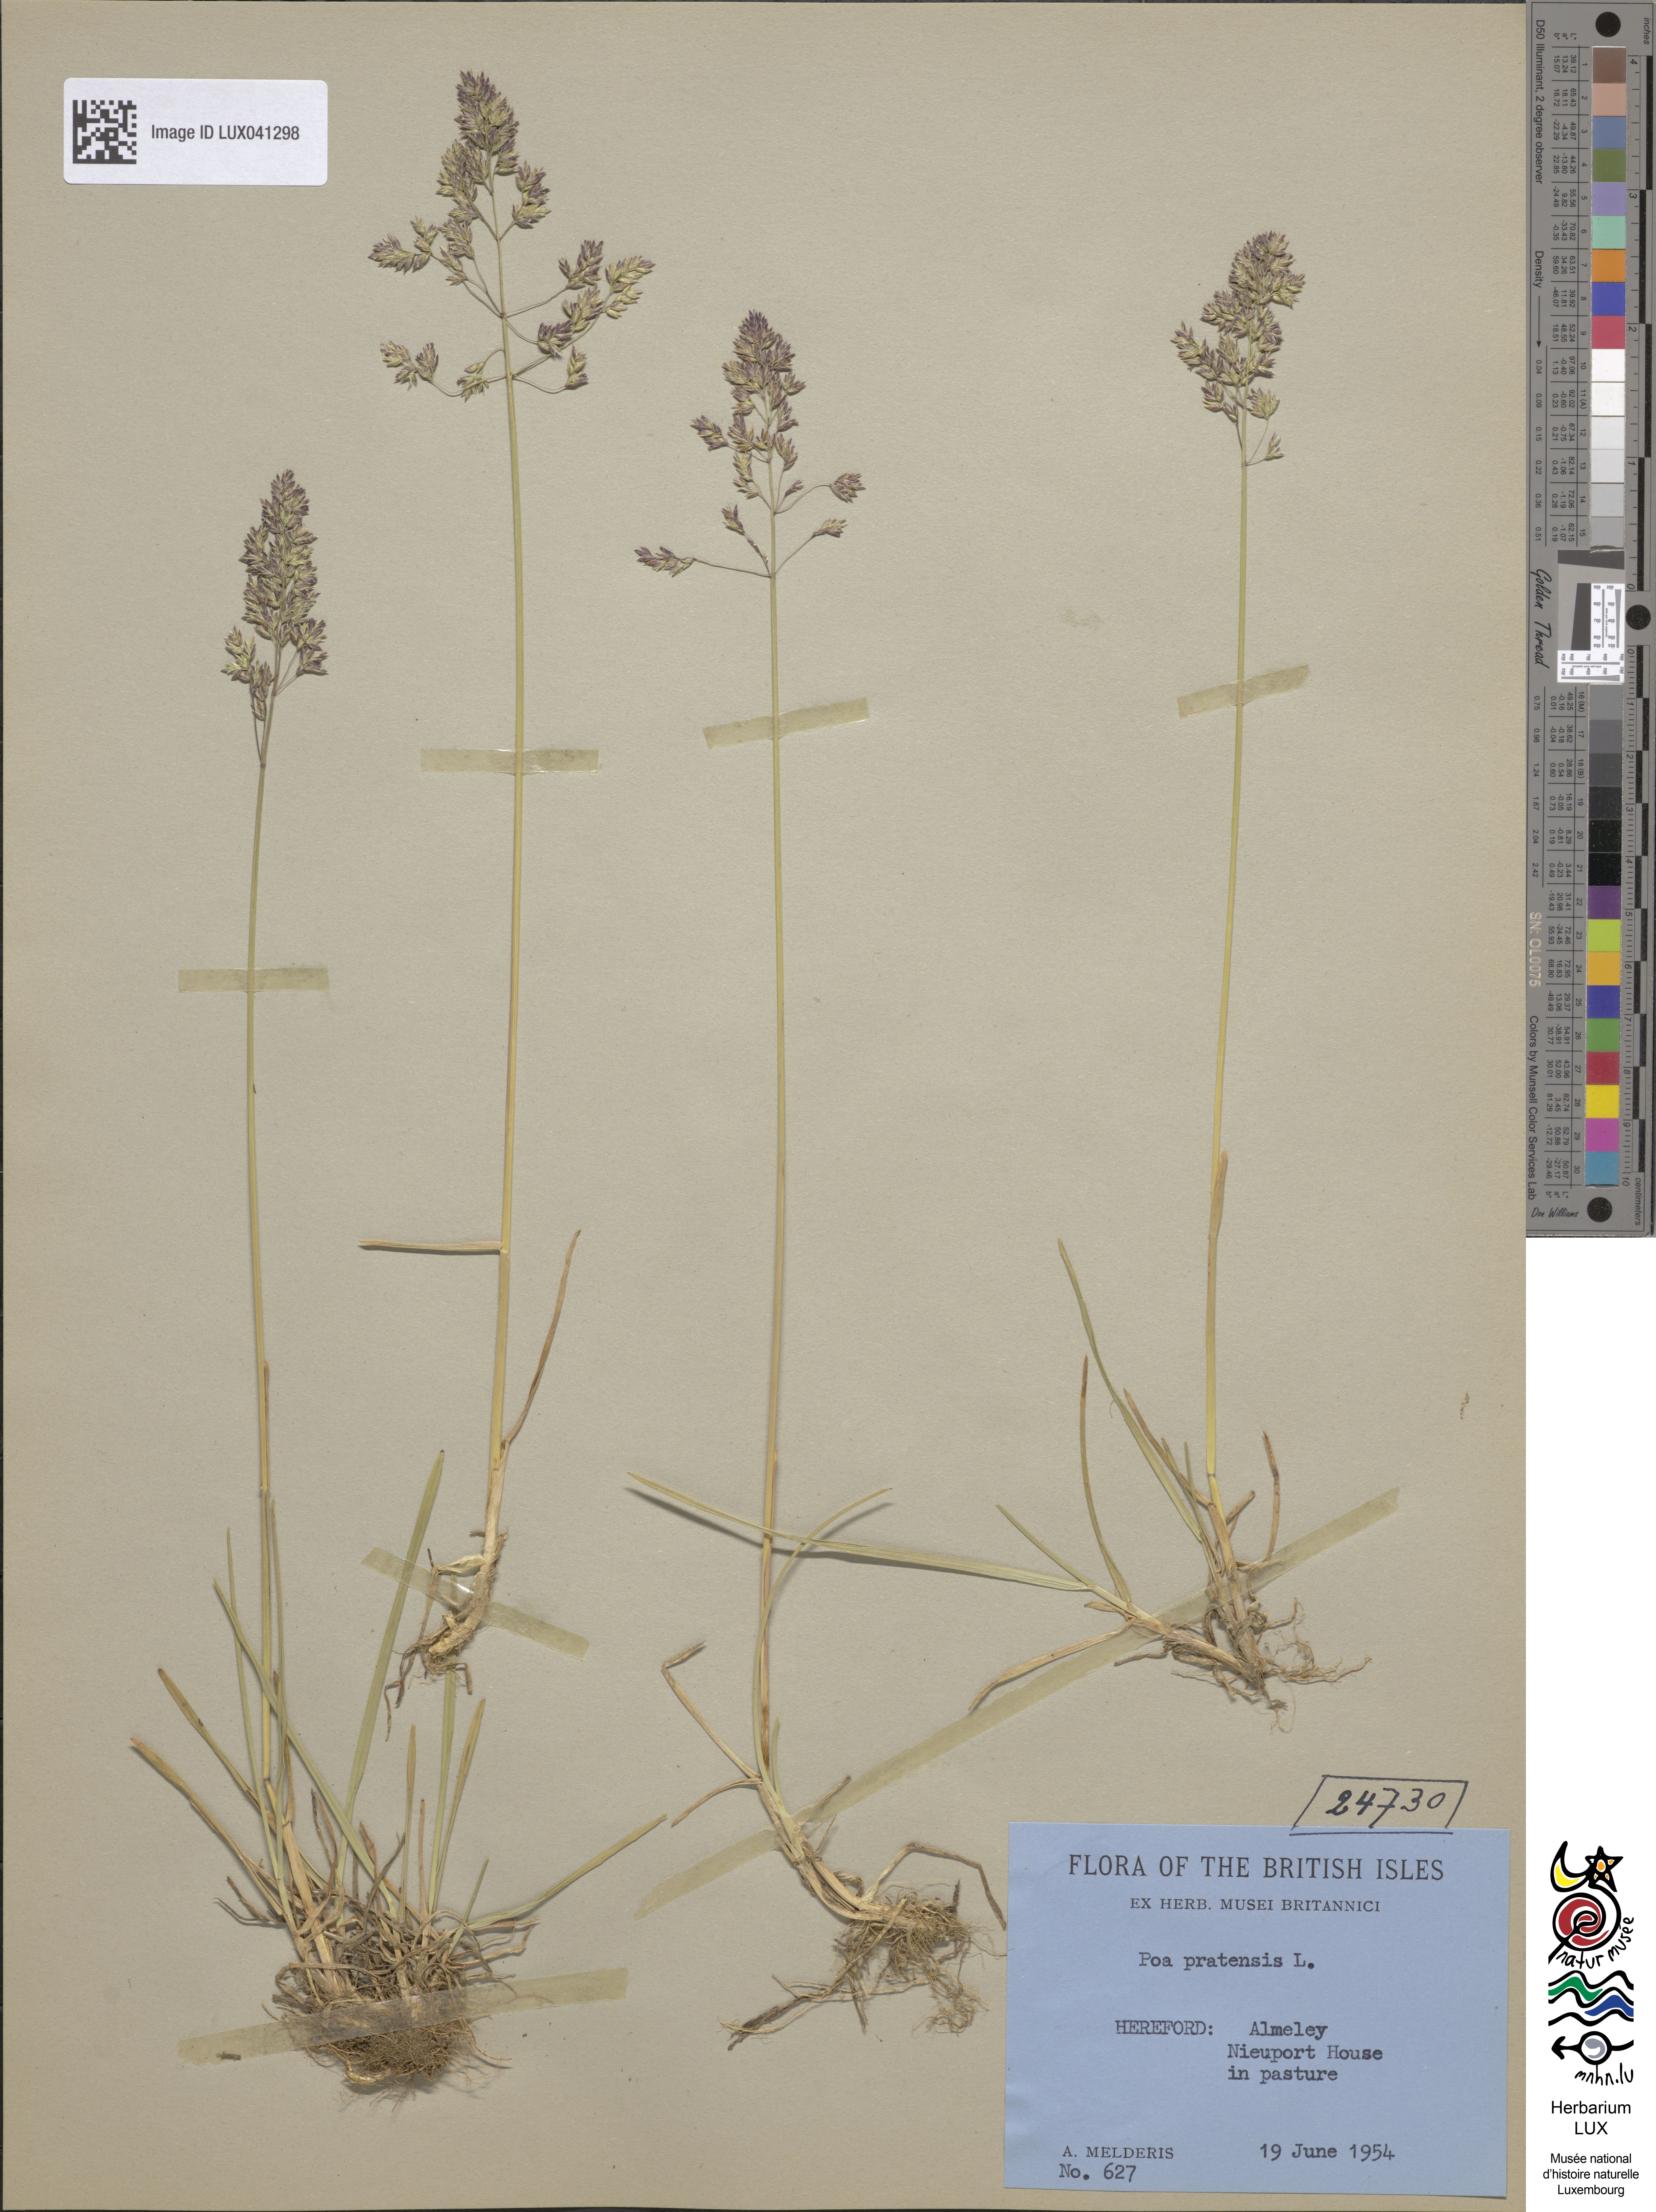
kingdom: Plantae
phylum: Tracheophyta
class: Liliopsida
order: Poales
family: Poaceae
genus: Poa
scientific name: Poa pratensis
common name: Kentucky bluegrass
